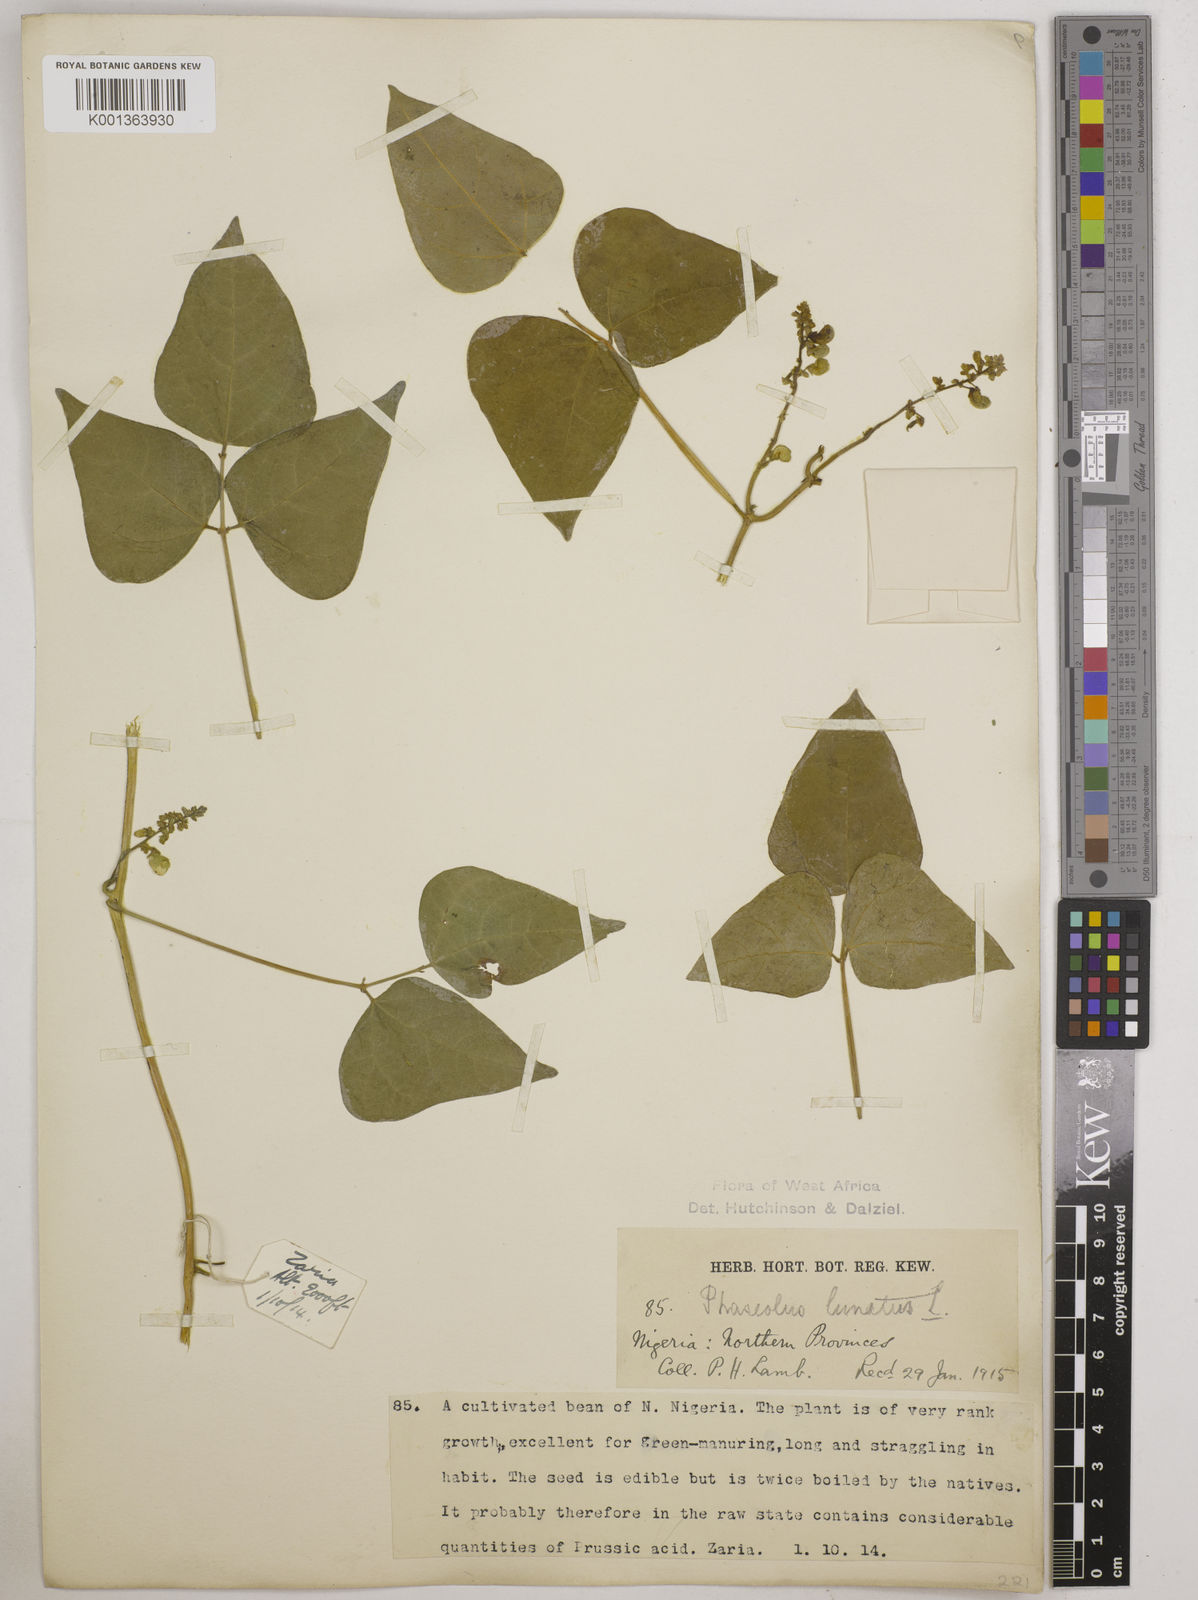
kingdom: Plantae
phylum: Tracheophyta
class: Magnoliopsida
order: Fabales
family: Fabaceae
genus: Phaseolus
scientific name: Phaseolus lunatus
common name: Sieva bean
